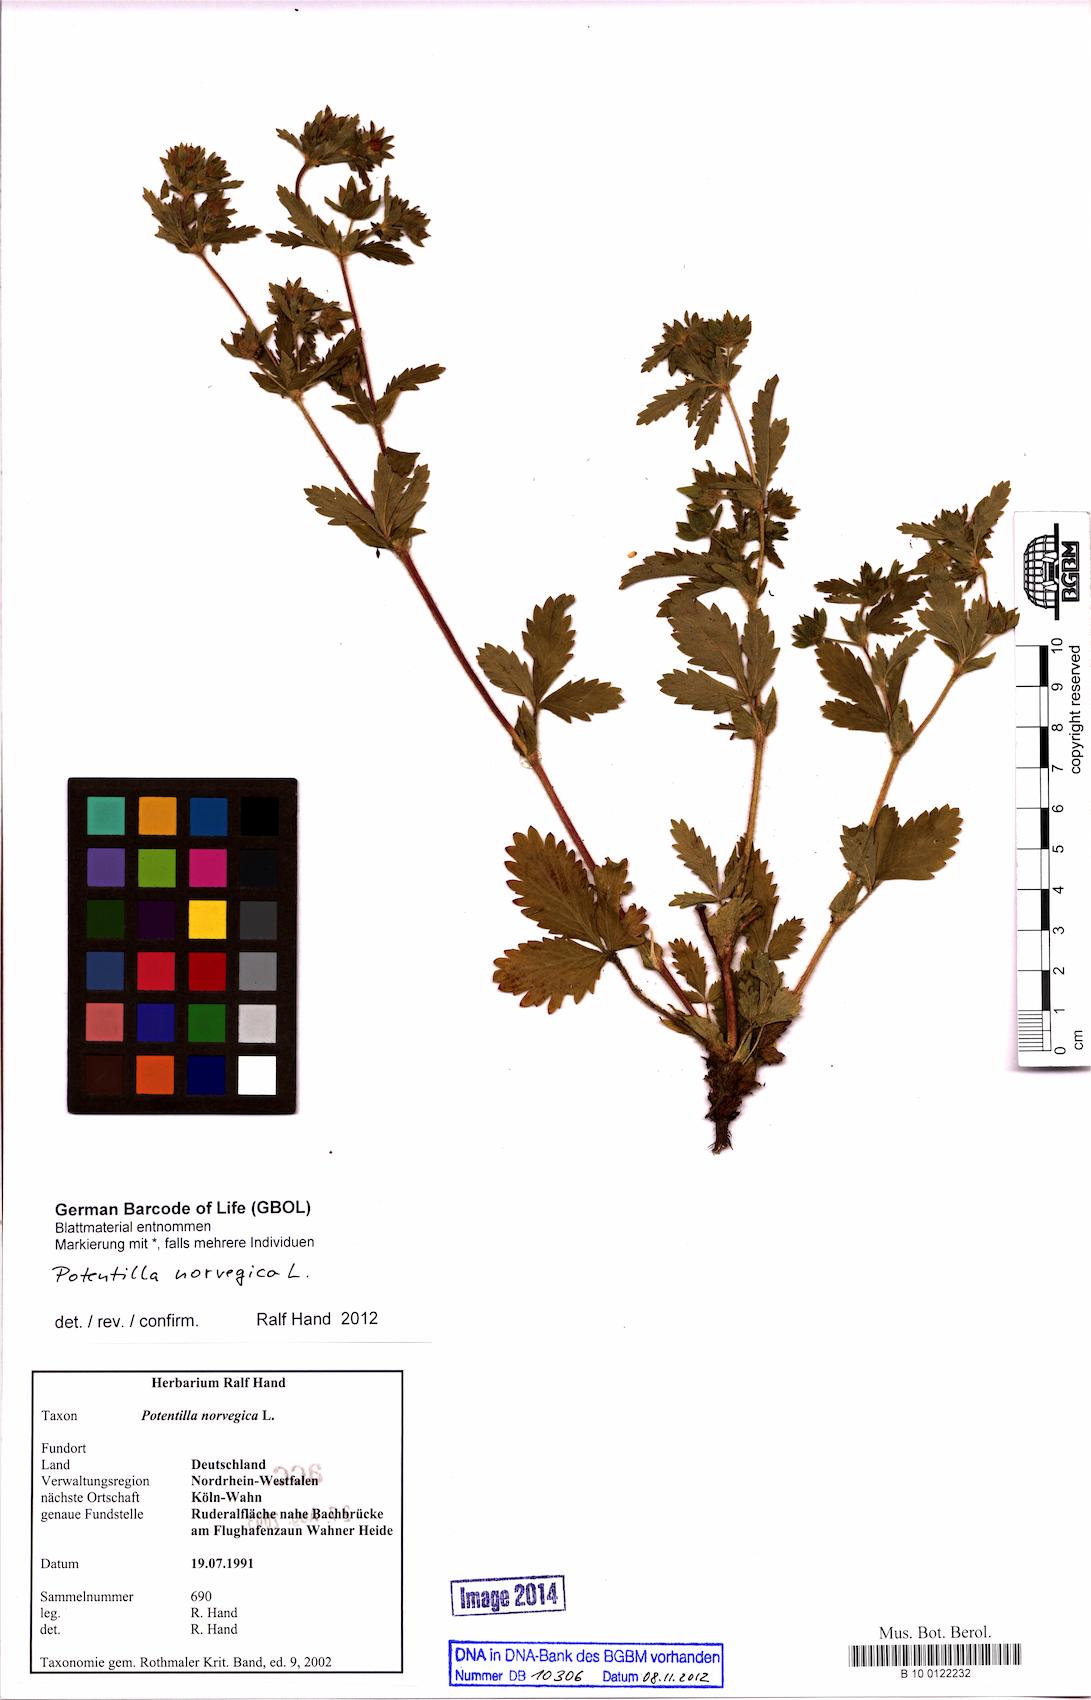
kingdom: Plantae
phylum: Tracheophyta
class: Magnoliopsida
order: Rosales
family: Rosaceae
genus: Potentilla
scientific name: Potentilla norvegica
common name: Ternate-leaved cinquefoil
